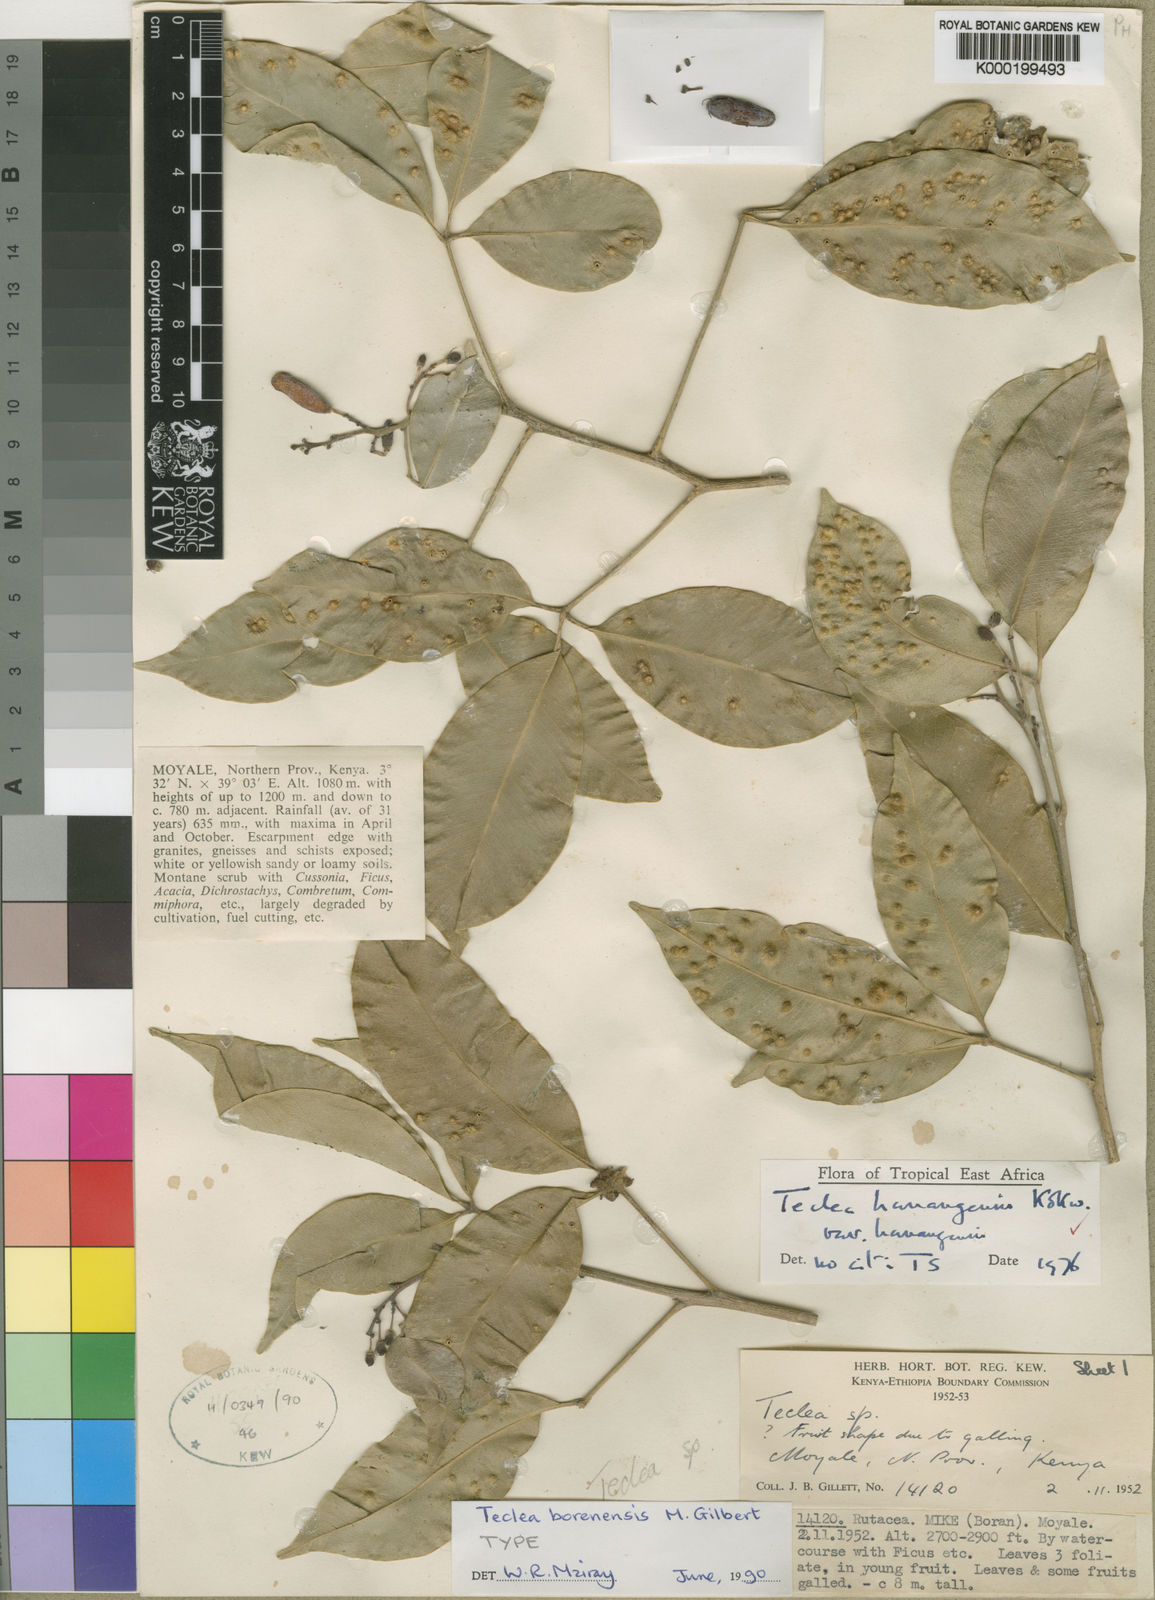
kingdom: Plantae
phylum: Tracheophyta
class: Magnoliopsida
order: Sapindales
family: Rutaceae
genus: Vepris
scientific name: Vepris borenensis
